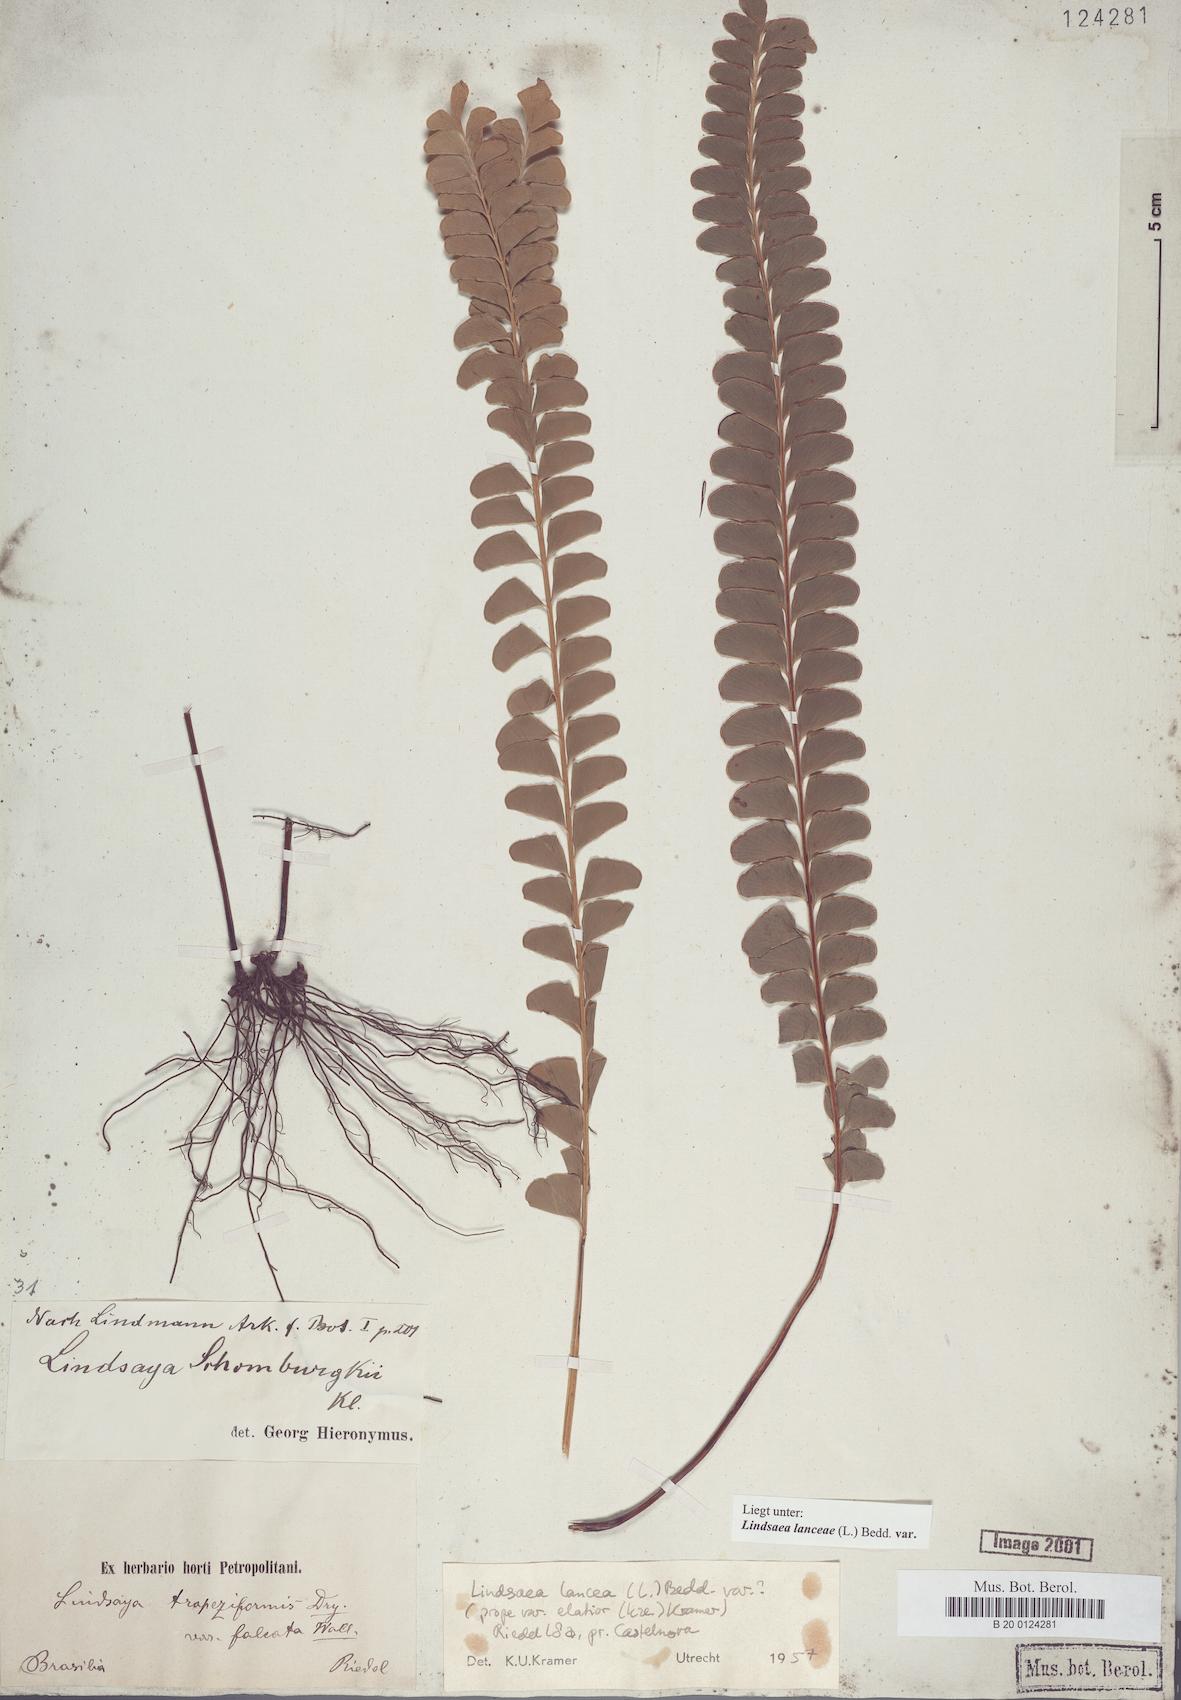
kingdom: Plantae
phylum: Tracheophyta
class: Polypodiopsida
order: Polypodiales
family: Lindsaeaceae
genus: Lindsaea
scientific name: Lindsaea lancea
